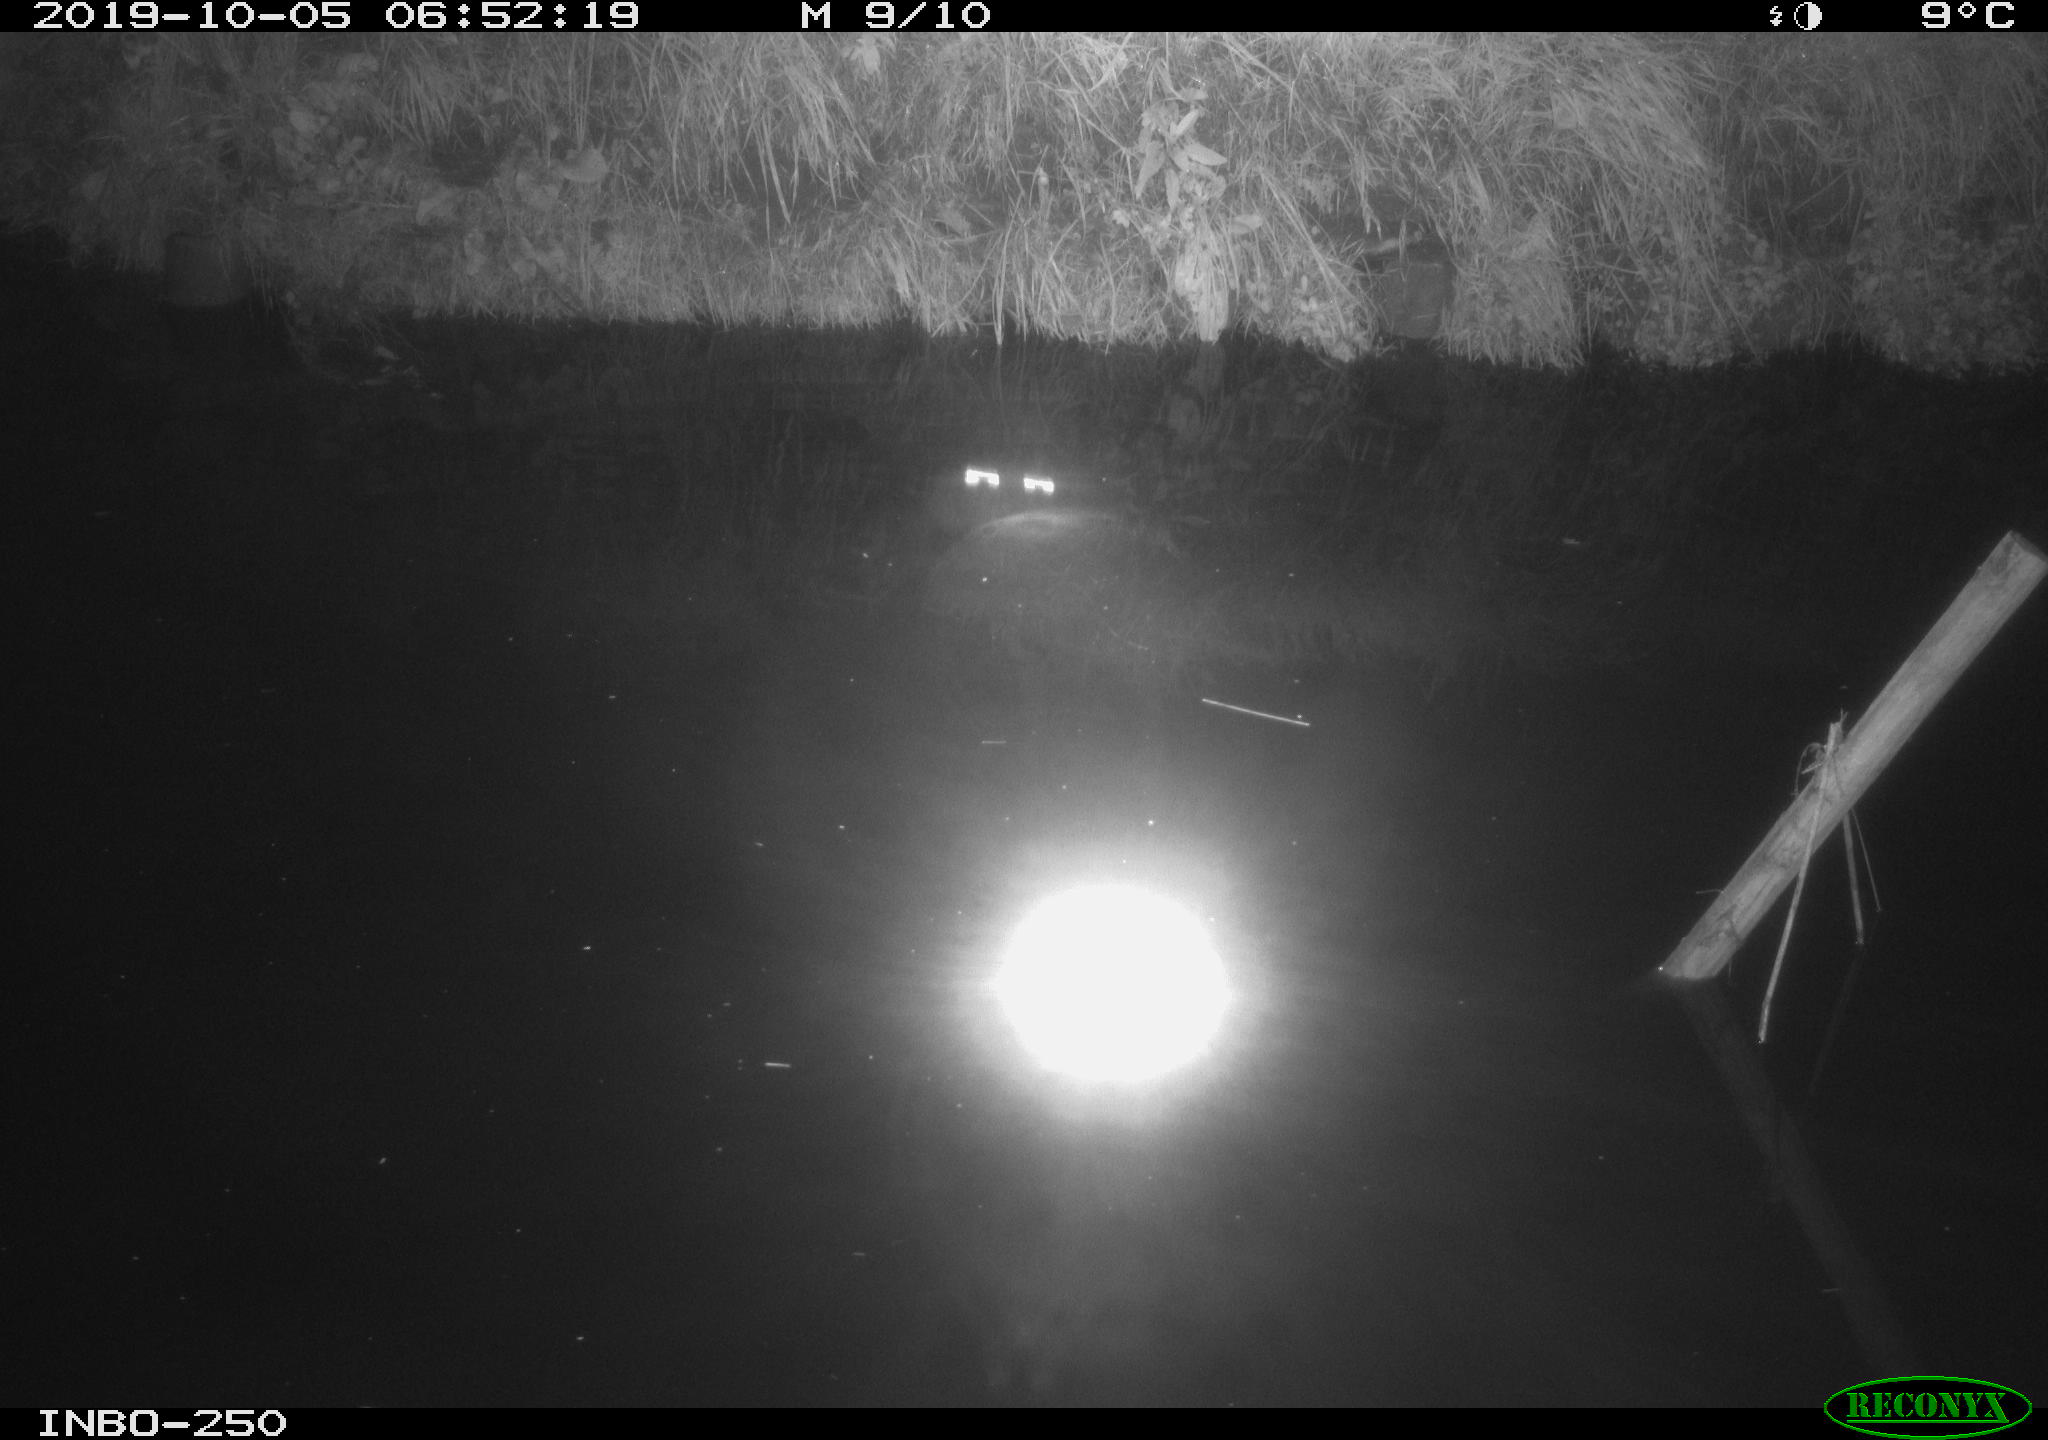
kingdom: Animalia
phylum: Chordata
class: Aves
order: Anseriformes
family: Anatidae
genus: Anas
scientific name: Anas platyrhynchos
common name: Mallard
